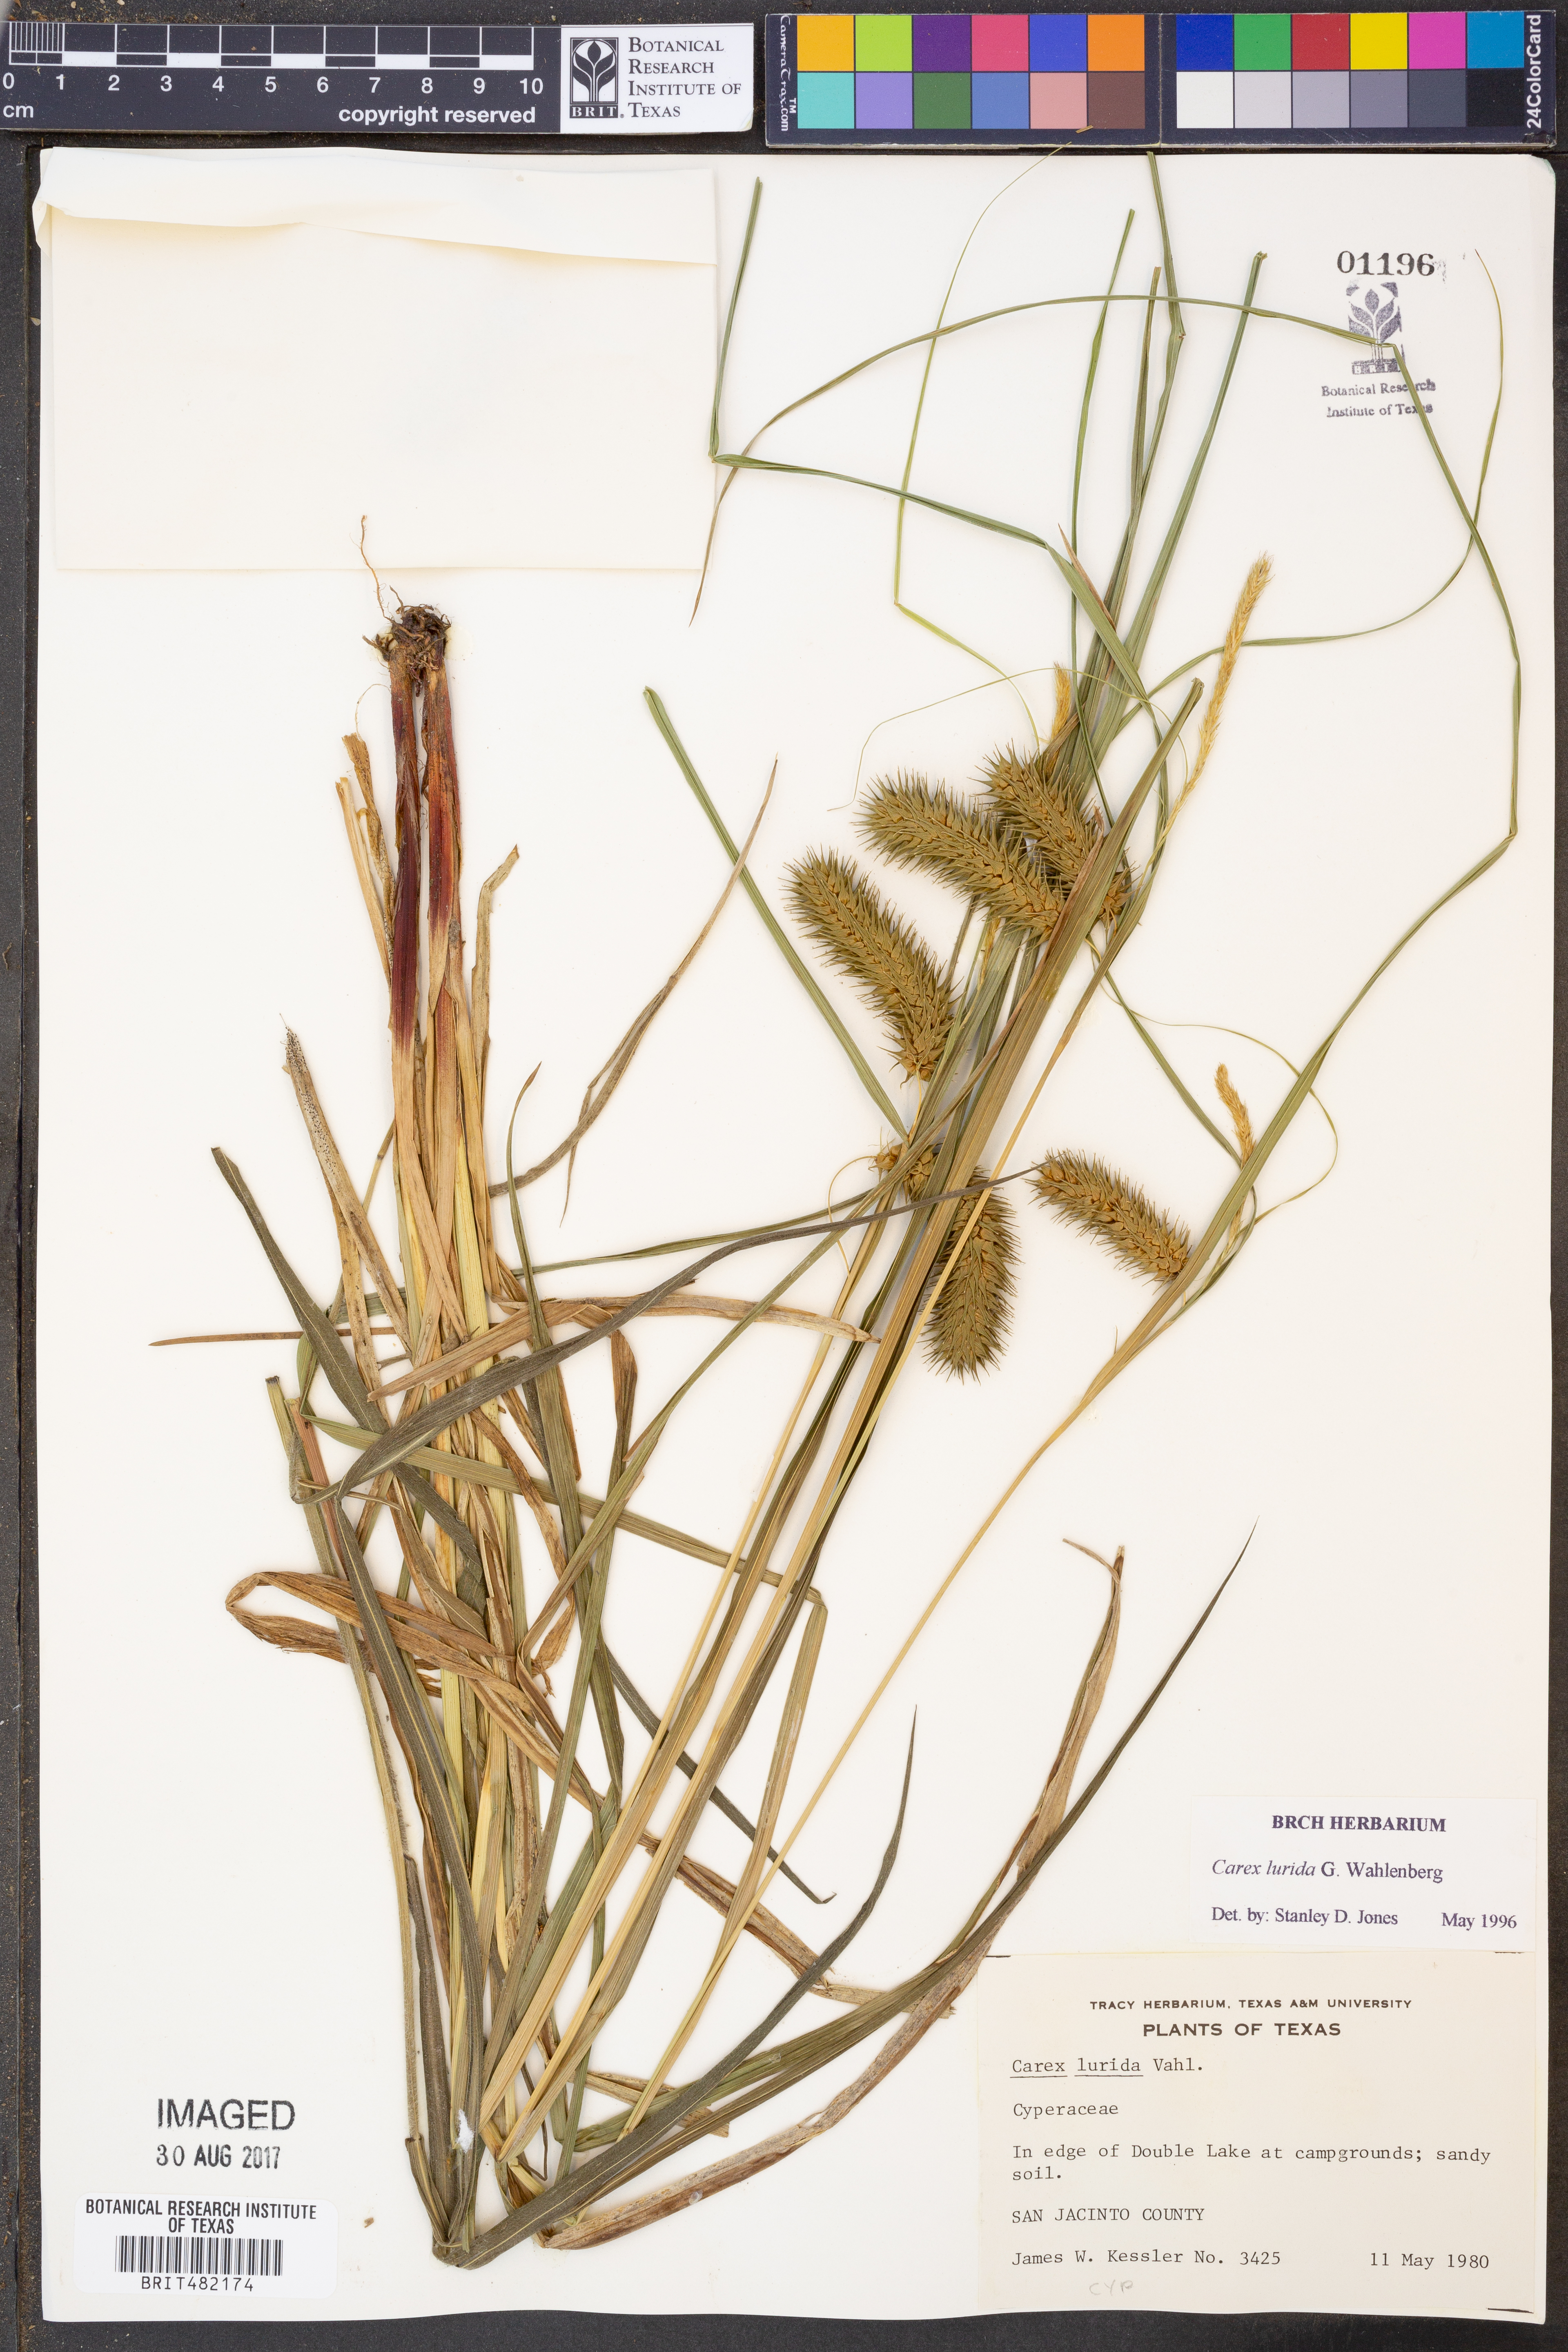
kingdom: Plantae
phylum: Tracheophyta
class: Liliopsida
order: Poales
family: Cyperaceae
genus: Carex
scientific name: Carex lurida
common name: Sallow sedge
